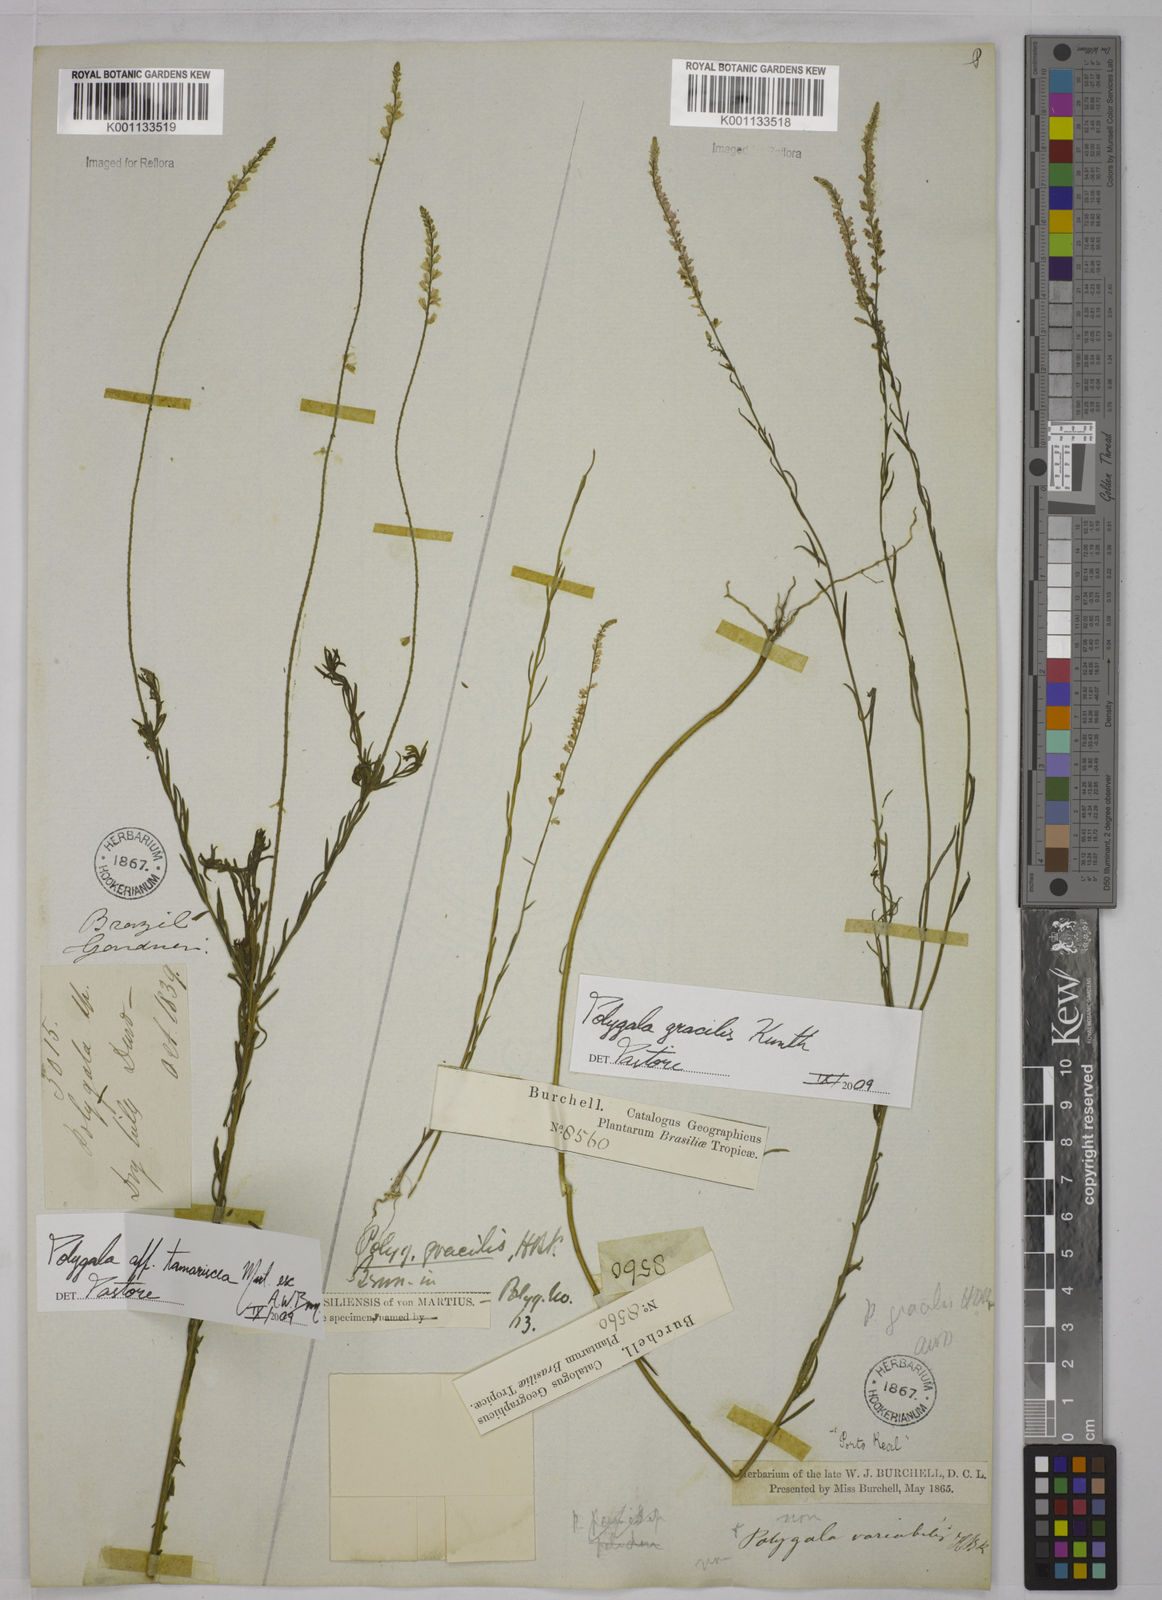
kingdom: Plantae
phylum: Tracheophyta
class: Magnoliopsida
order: Fabales
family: Polygalaceae
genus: Polygala
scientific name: Polygala gracilis
